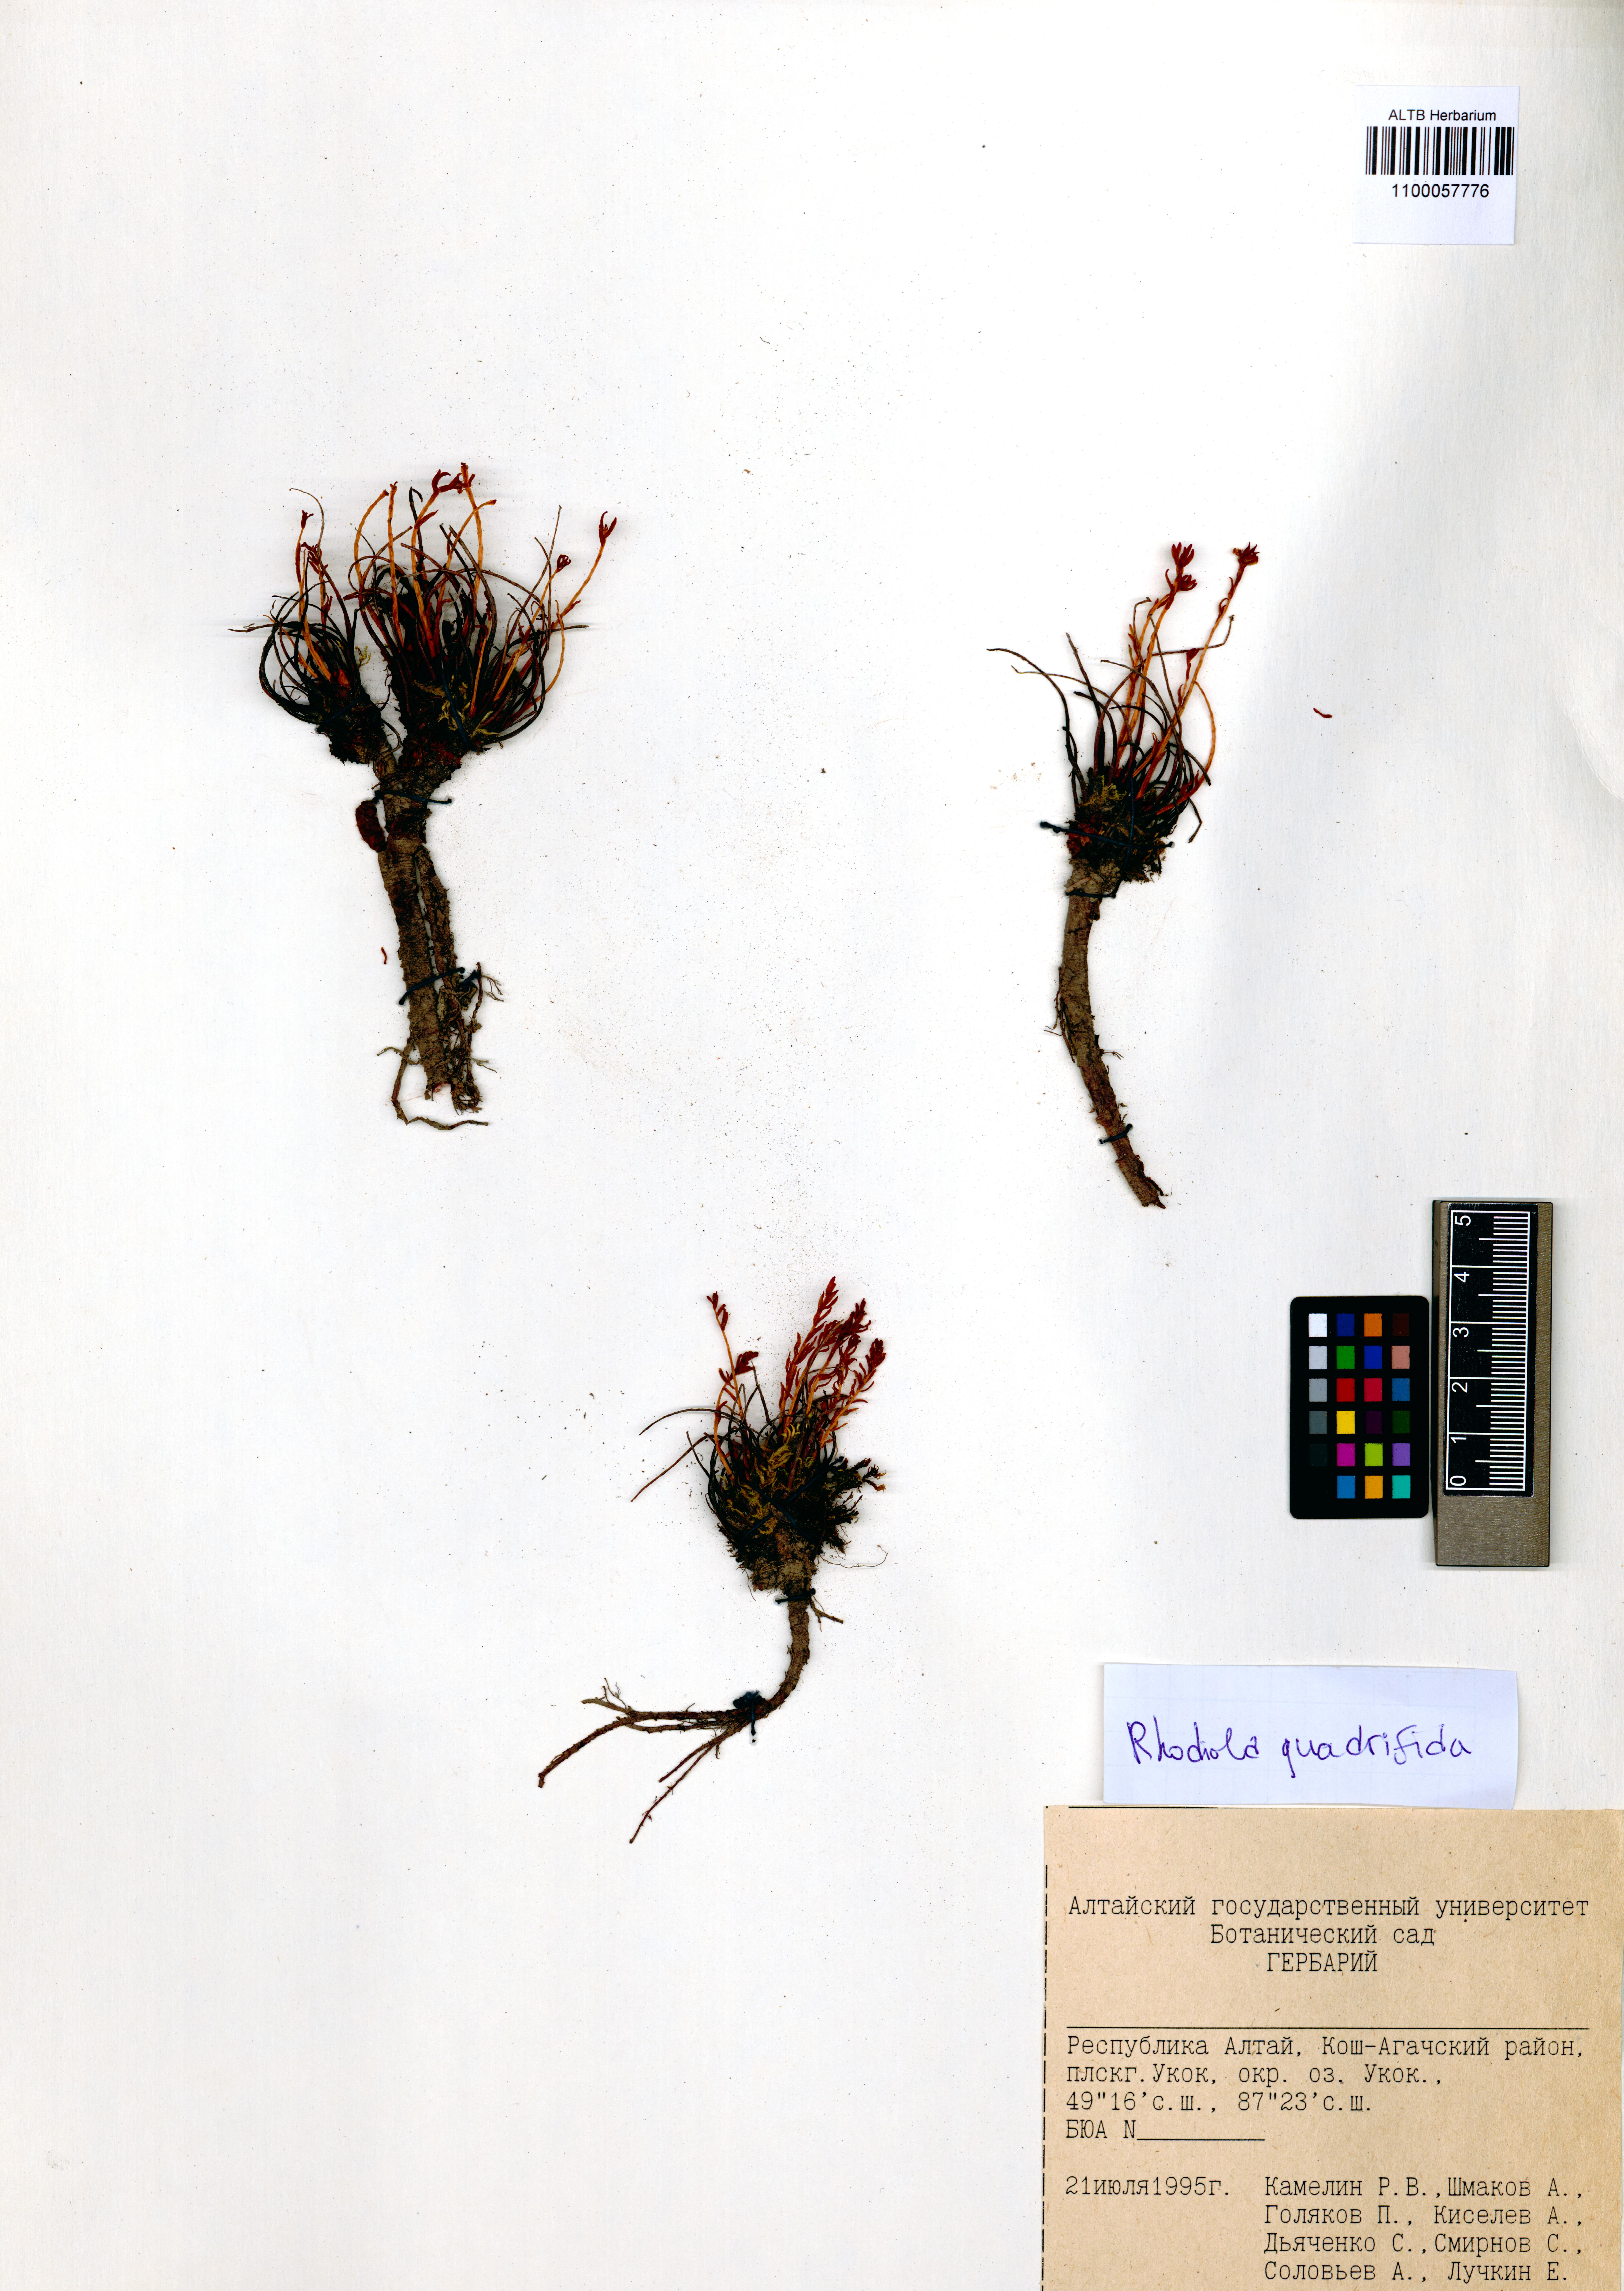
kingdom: Plantae
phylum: Tracheophyta
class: Magnoliopsida
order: Saxifragales
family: Crassulaceae
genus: Rhodiola
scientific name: Rhodiola quadrifida
